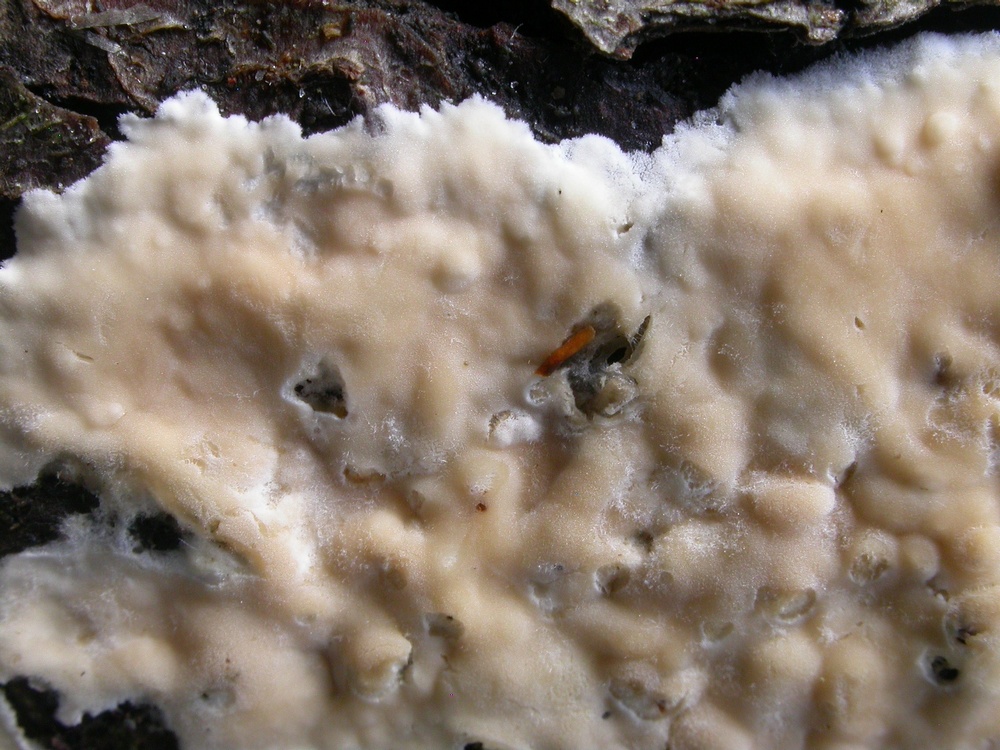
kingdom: Fungi
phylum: Basidiomycota
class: Agaricomycetes
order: Agaricales
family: Physalacriaceae
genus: Cylindrobasidium
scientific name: Cylindrobasidium evolvens
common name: sprækkehinde
